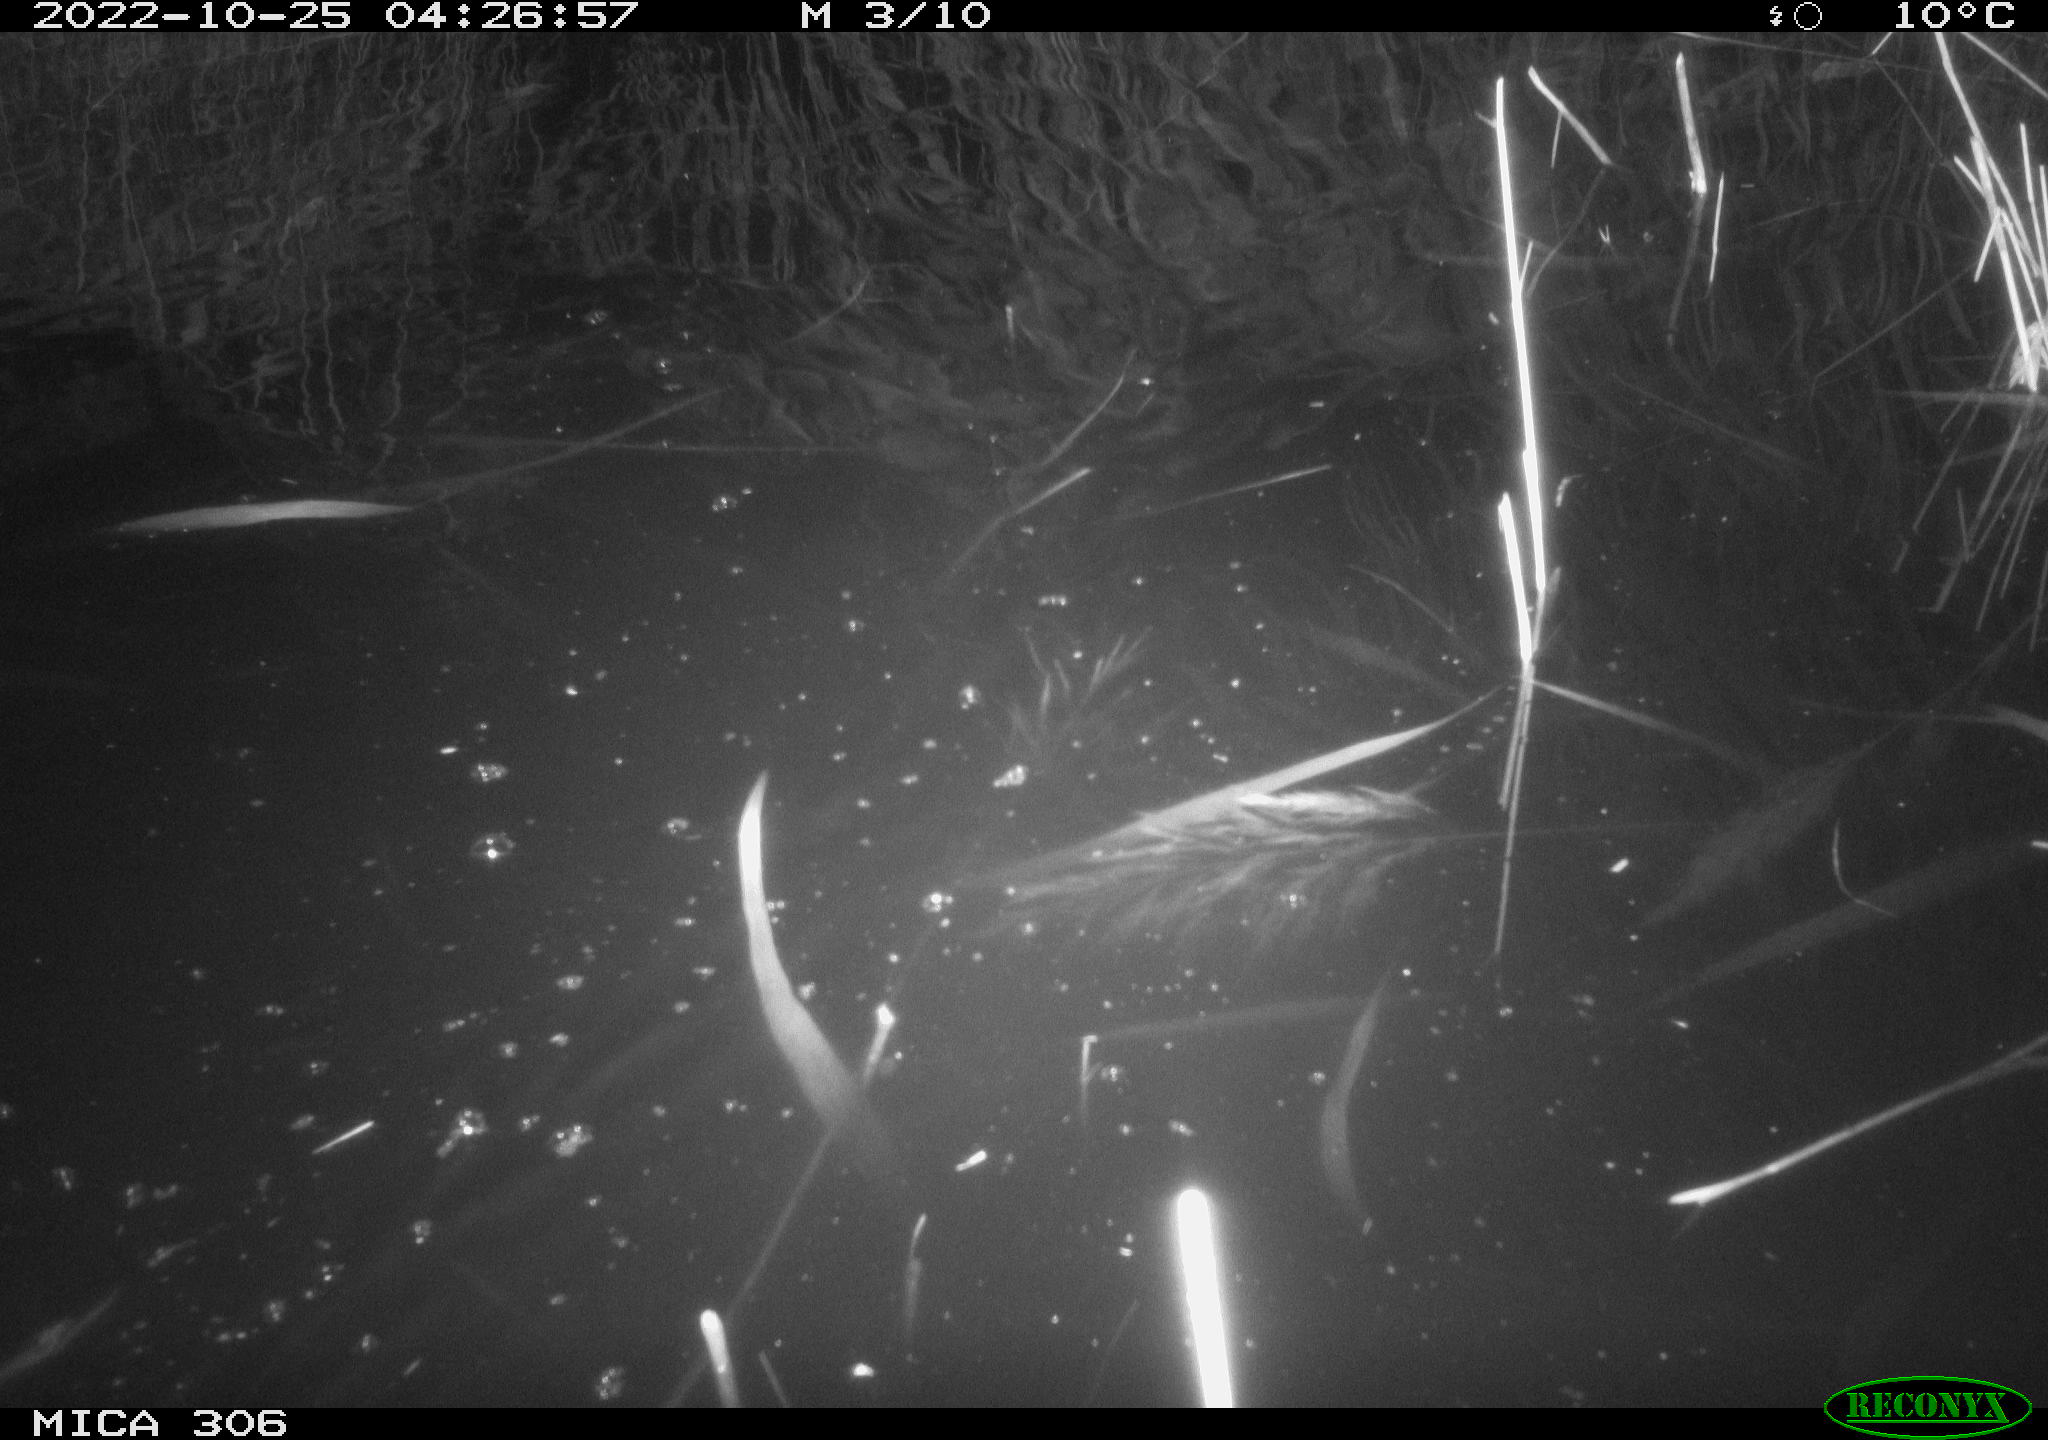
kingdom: Animalia
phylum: Chordata
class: Mammalia
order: Rodentia
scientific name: Rodentia
